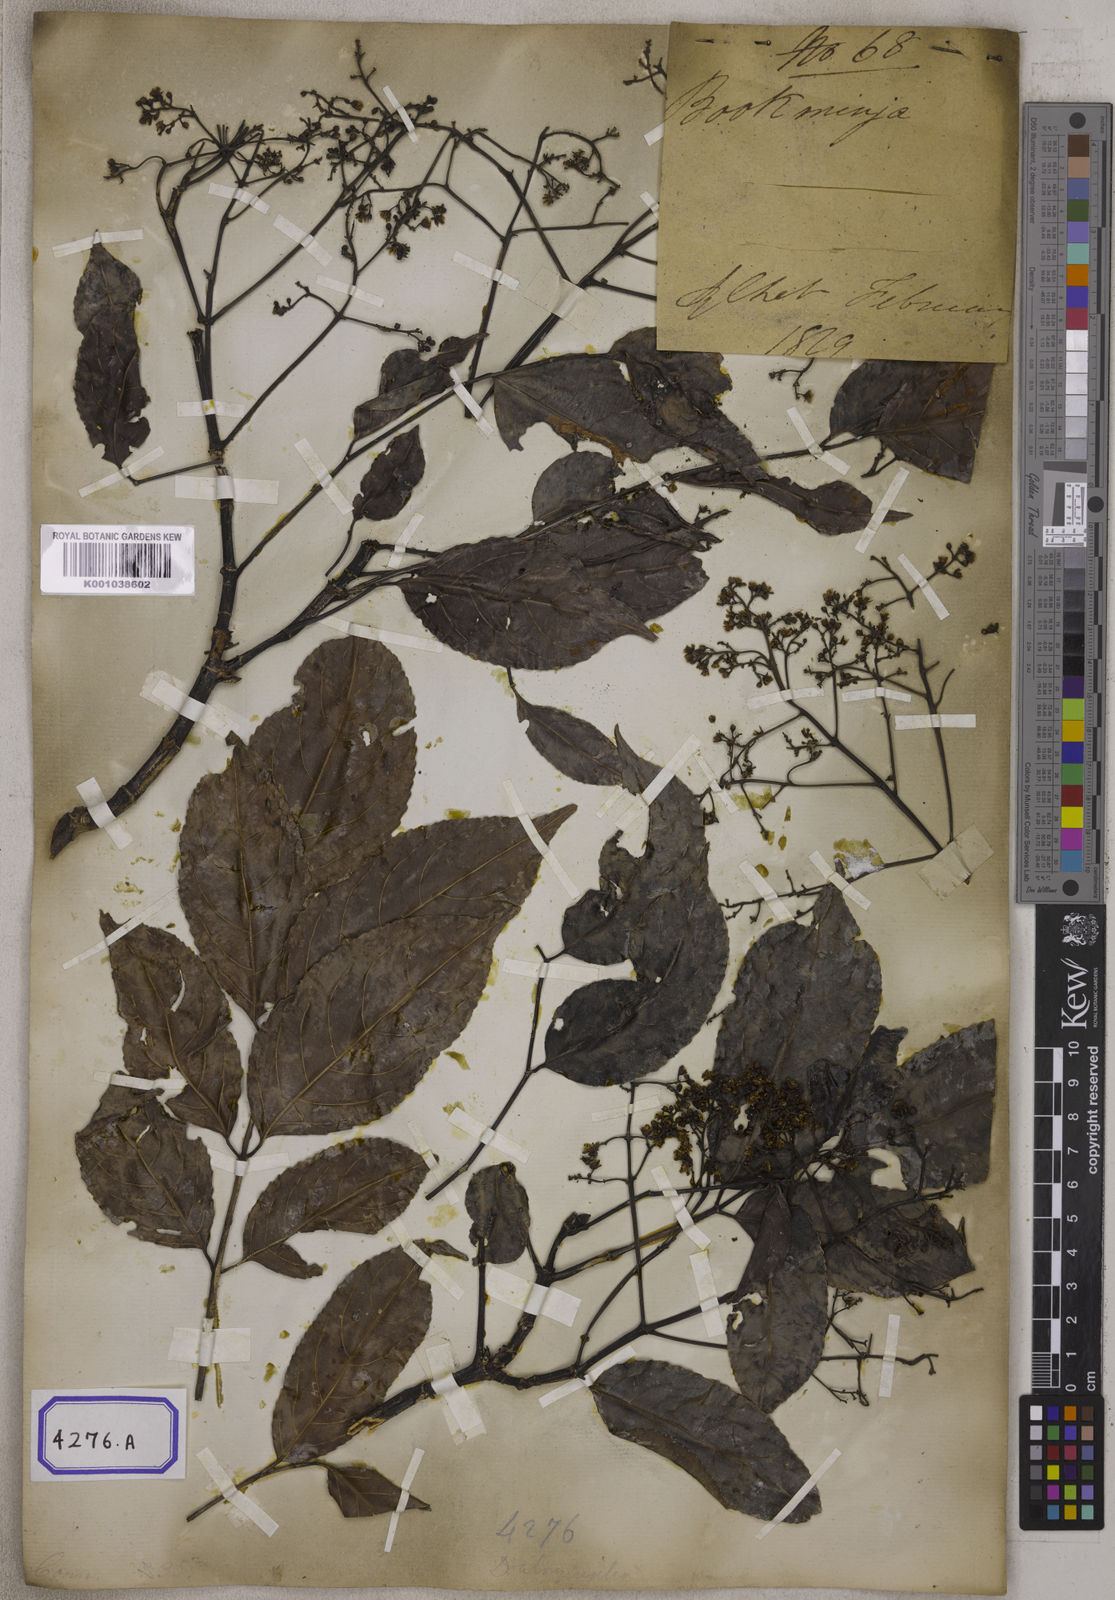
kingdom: Plantae
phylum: Tracheophyta
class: Magnoliopsida
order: Crossosomatales
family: Staphyleaceae
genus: Dalrympelea
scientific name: Dalrympelea pomifera
